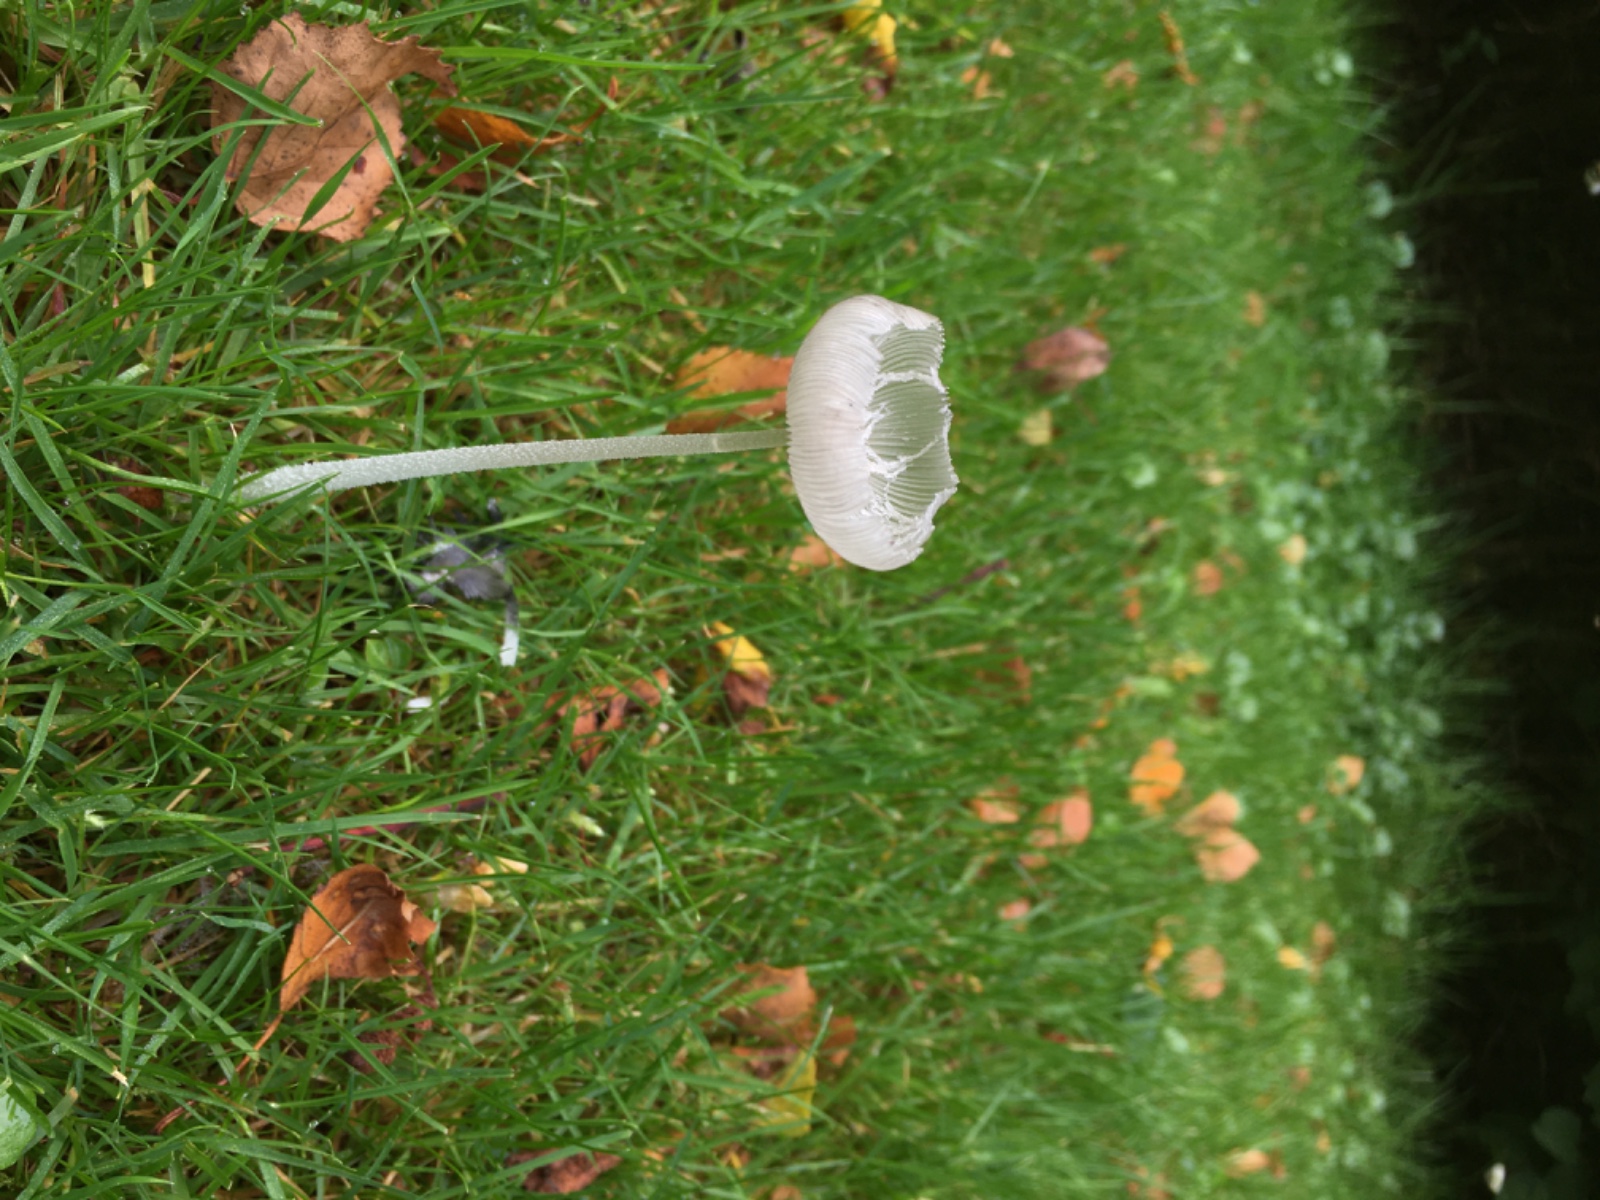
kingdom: Fungi
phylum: Basidiomycota
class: Agaricomycetes
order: Agaricales
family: Psathyrellaceae
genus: Coprinopsis
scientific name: Coprinopsis lagopus
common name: dunstokket blækhat
